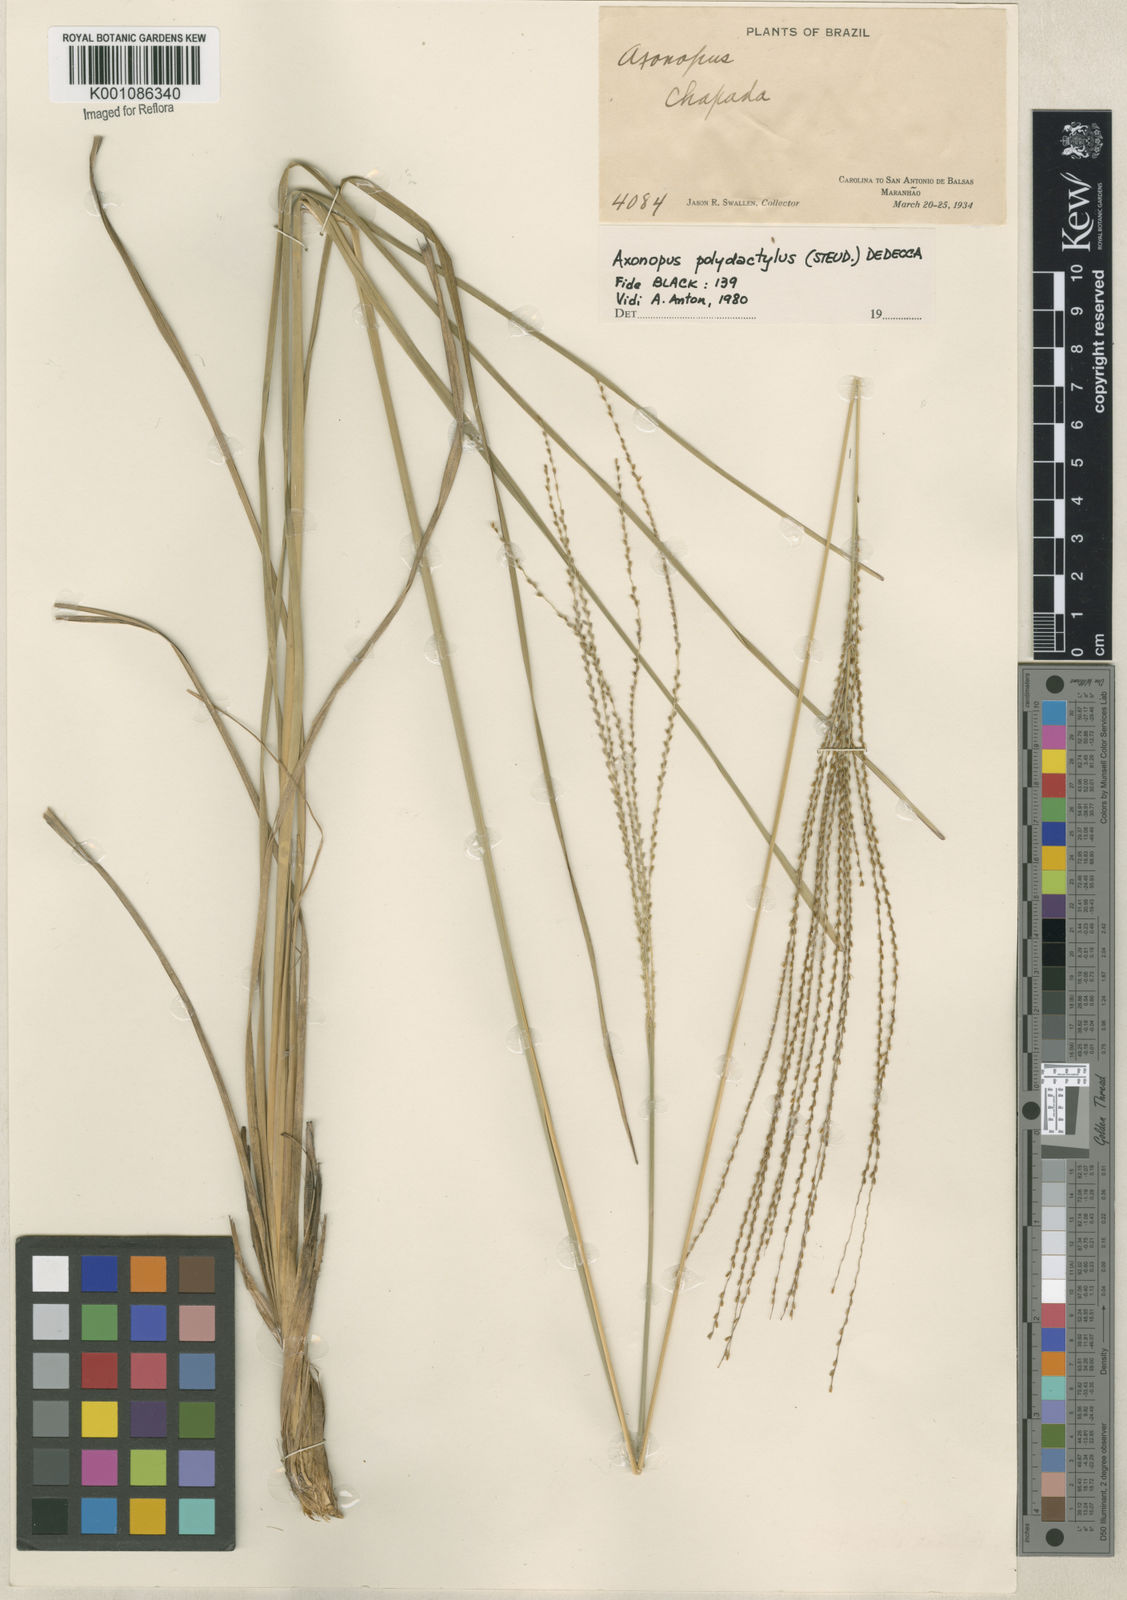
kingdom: Plantae
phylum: Tracheophyta
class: Liliopsida
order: Poales
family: Poaceae
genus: Axonopus
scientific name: Axonopus polydactylus
